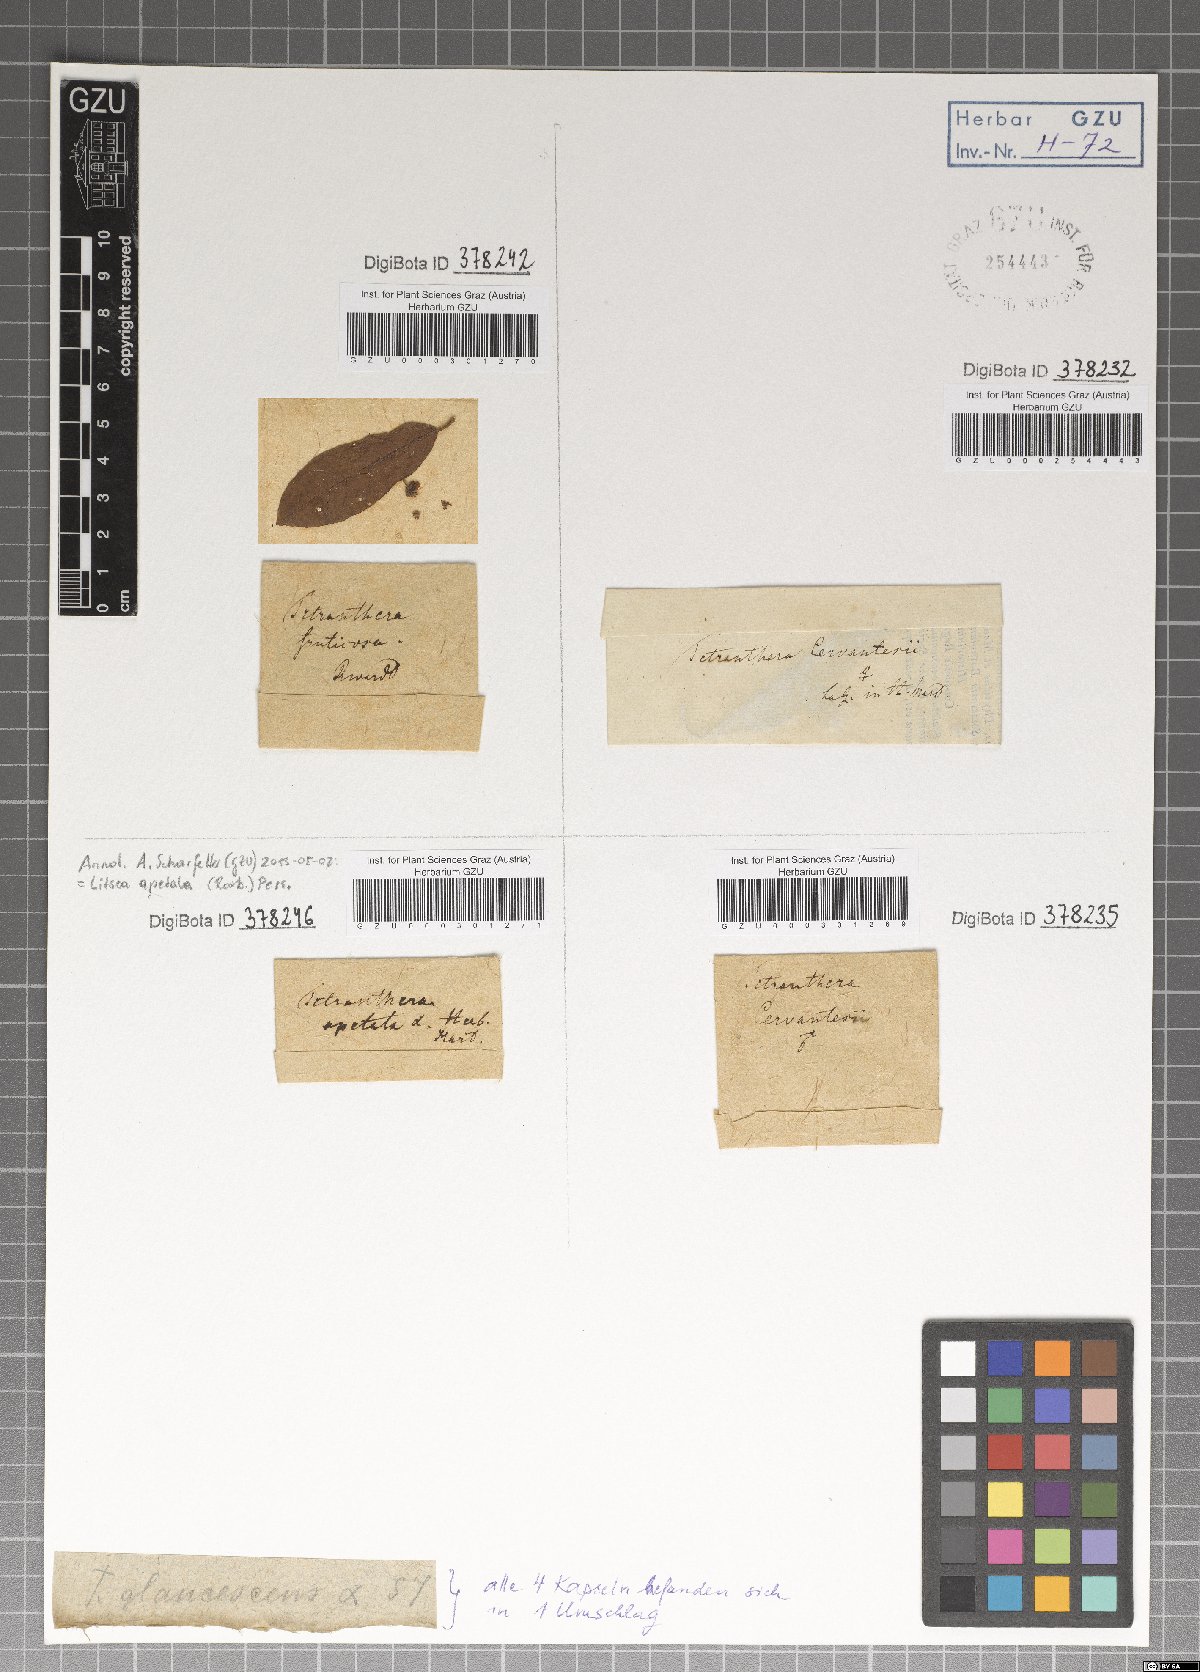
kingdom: Plantae
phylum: Tracheophyta
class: Magnoliopsida
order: Laurales
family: Lauraceae
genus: Litsea
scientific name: Litsea umbellata
